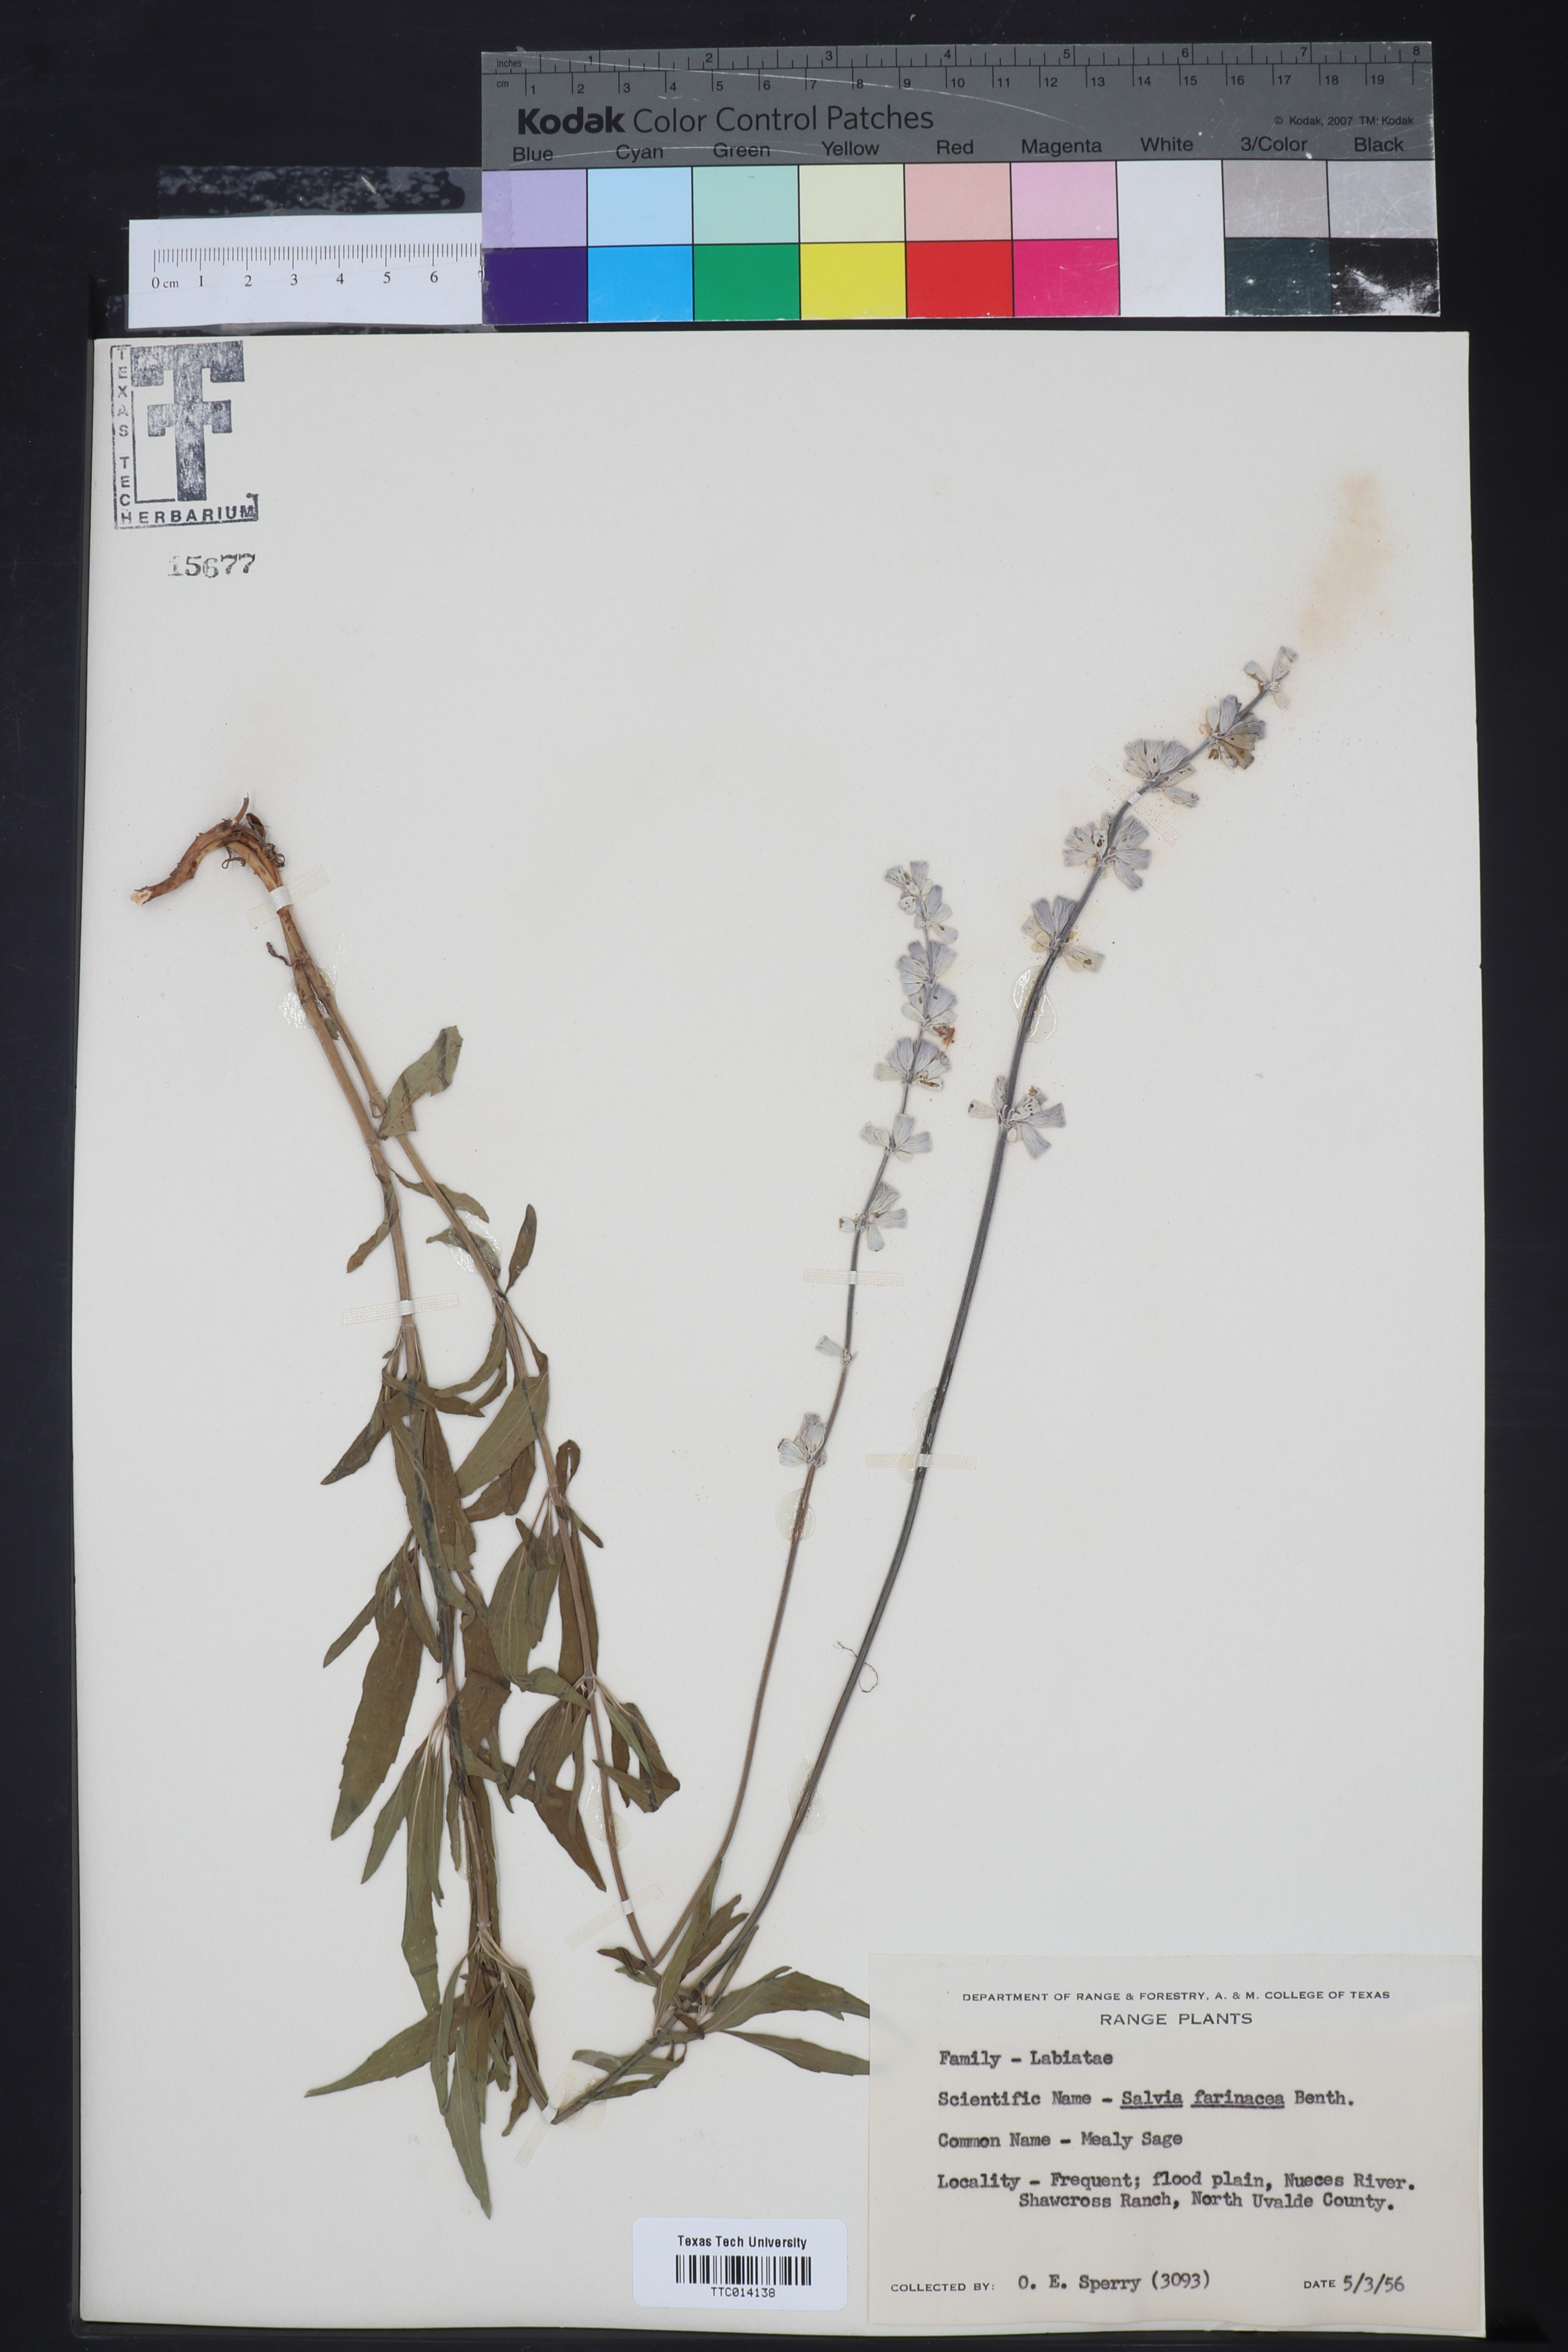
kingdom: Plantae
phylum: Tracheophyta
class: Magnoliopsida
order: Lamiales
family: Lamiaceae
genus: Salvia
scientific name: Salvia farinacea
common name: Mealy sage
